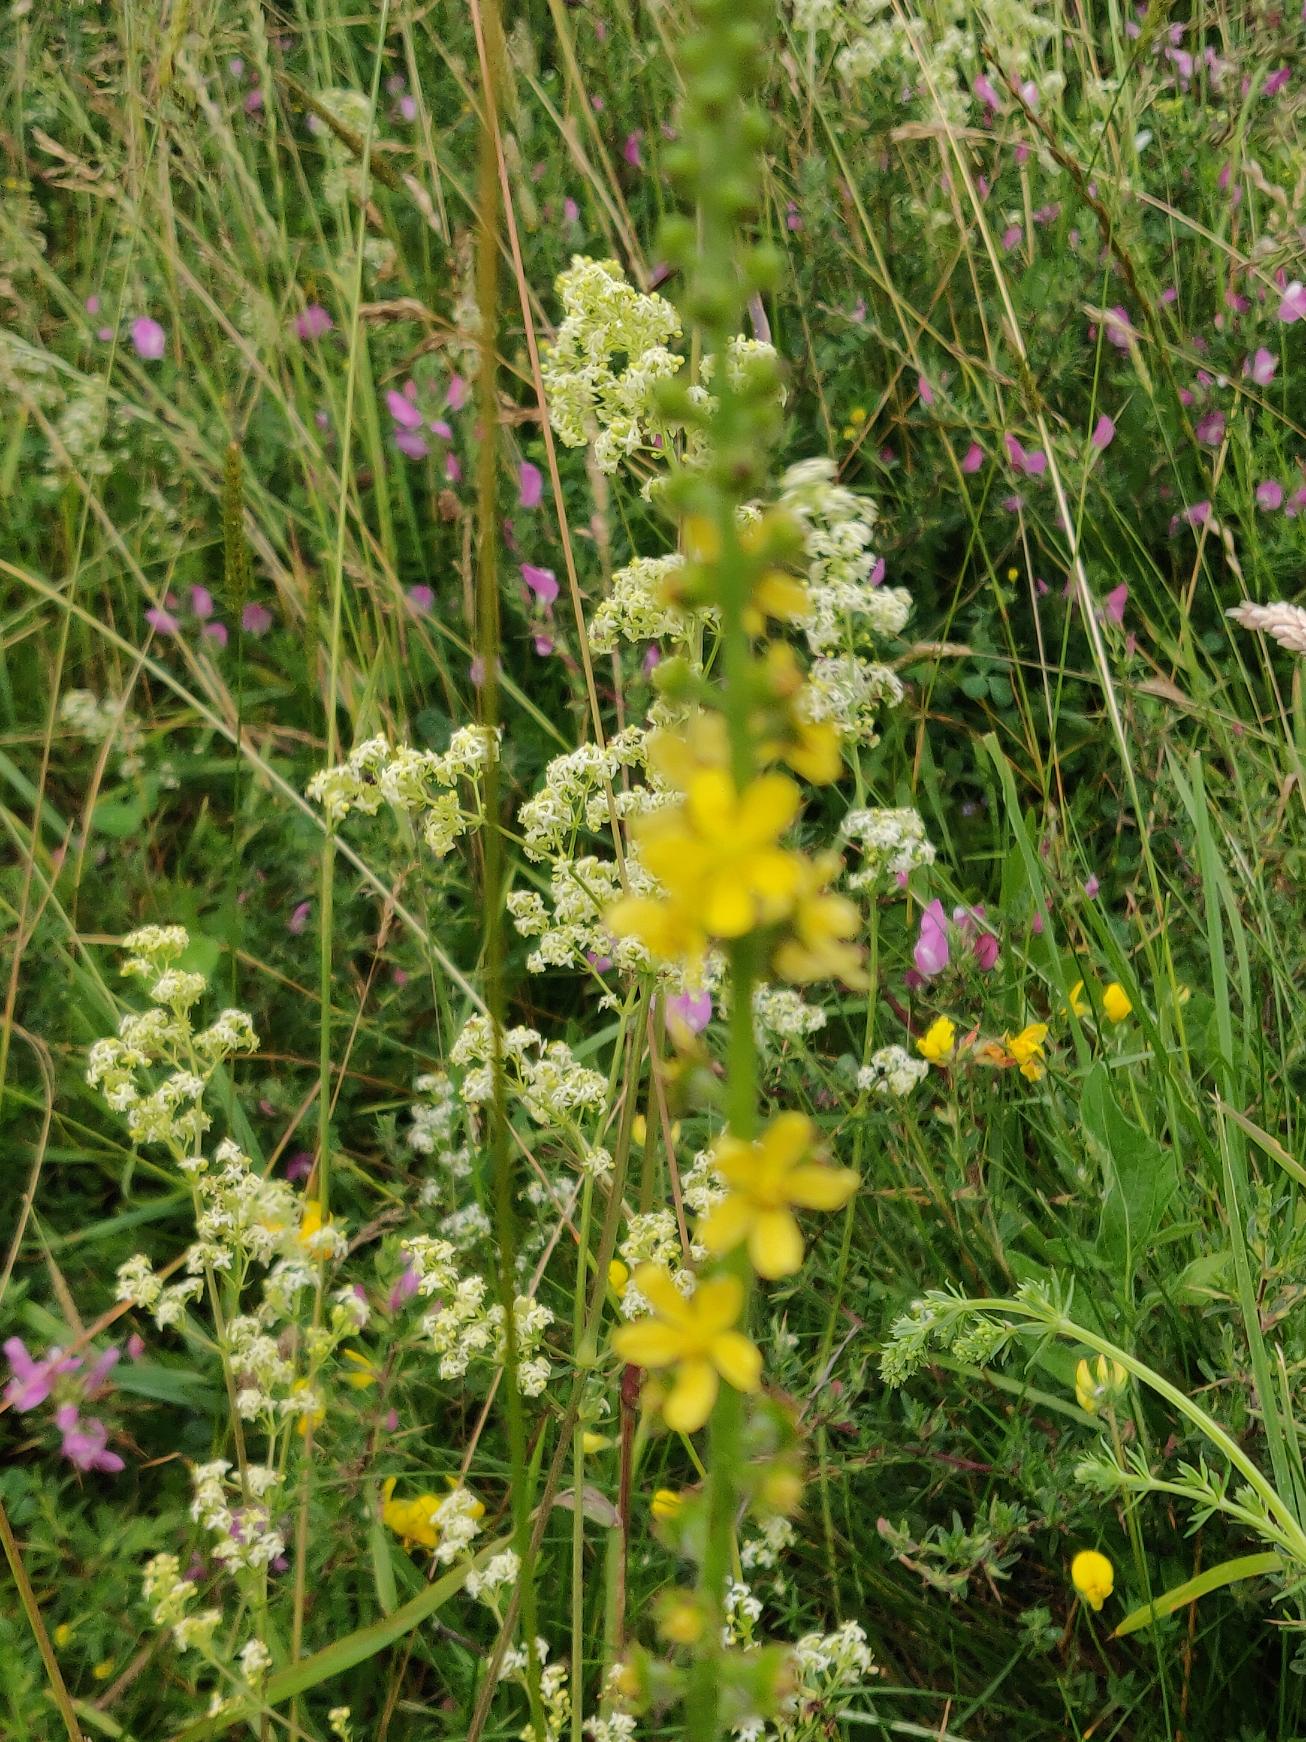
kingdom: Plantae
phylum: Tracheophyta
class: Magnoliopsida
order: Rosales
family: Rosaceae
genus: Agrimonia
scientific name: Agrimonia eupatoria
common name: Almindelig agermåne
